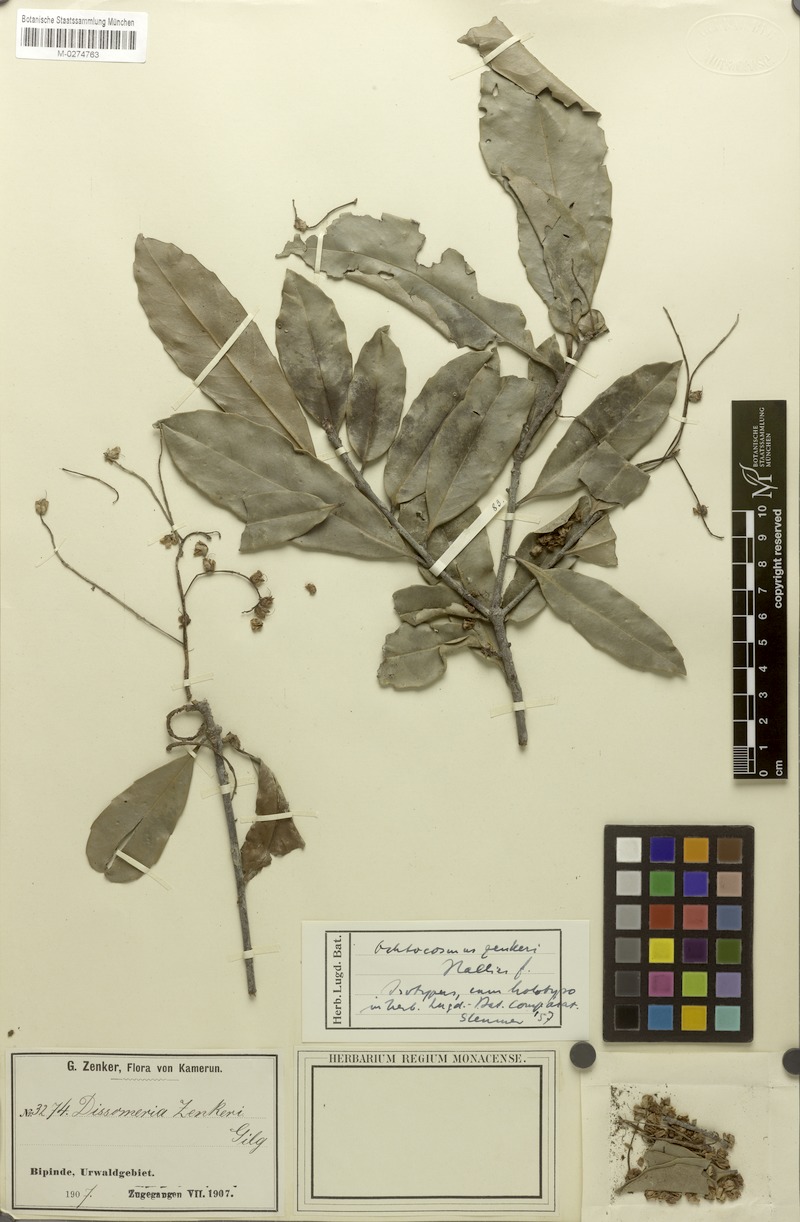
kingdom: Plantae
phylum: Tracheophyta
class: Magnoliopsida
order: Malpighiales
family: Ixonanthaceae
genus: Phyllocosmus
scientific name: Phyllocosmus sessiliflorus
